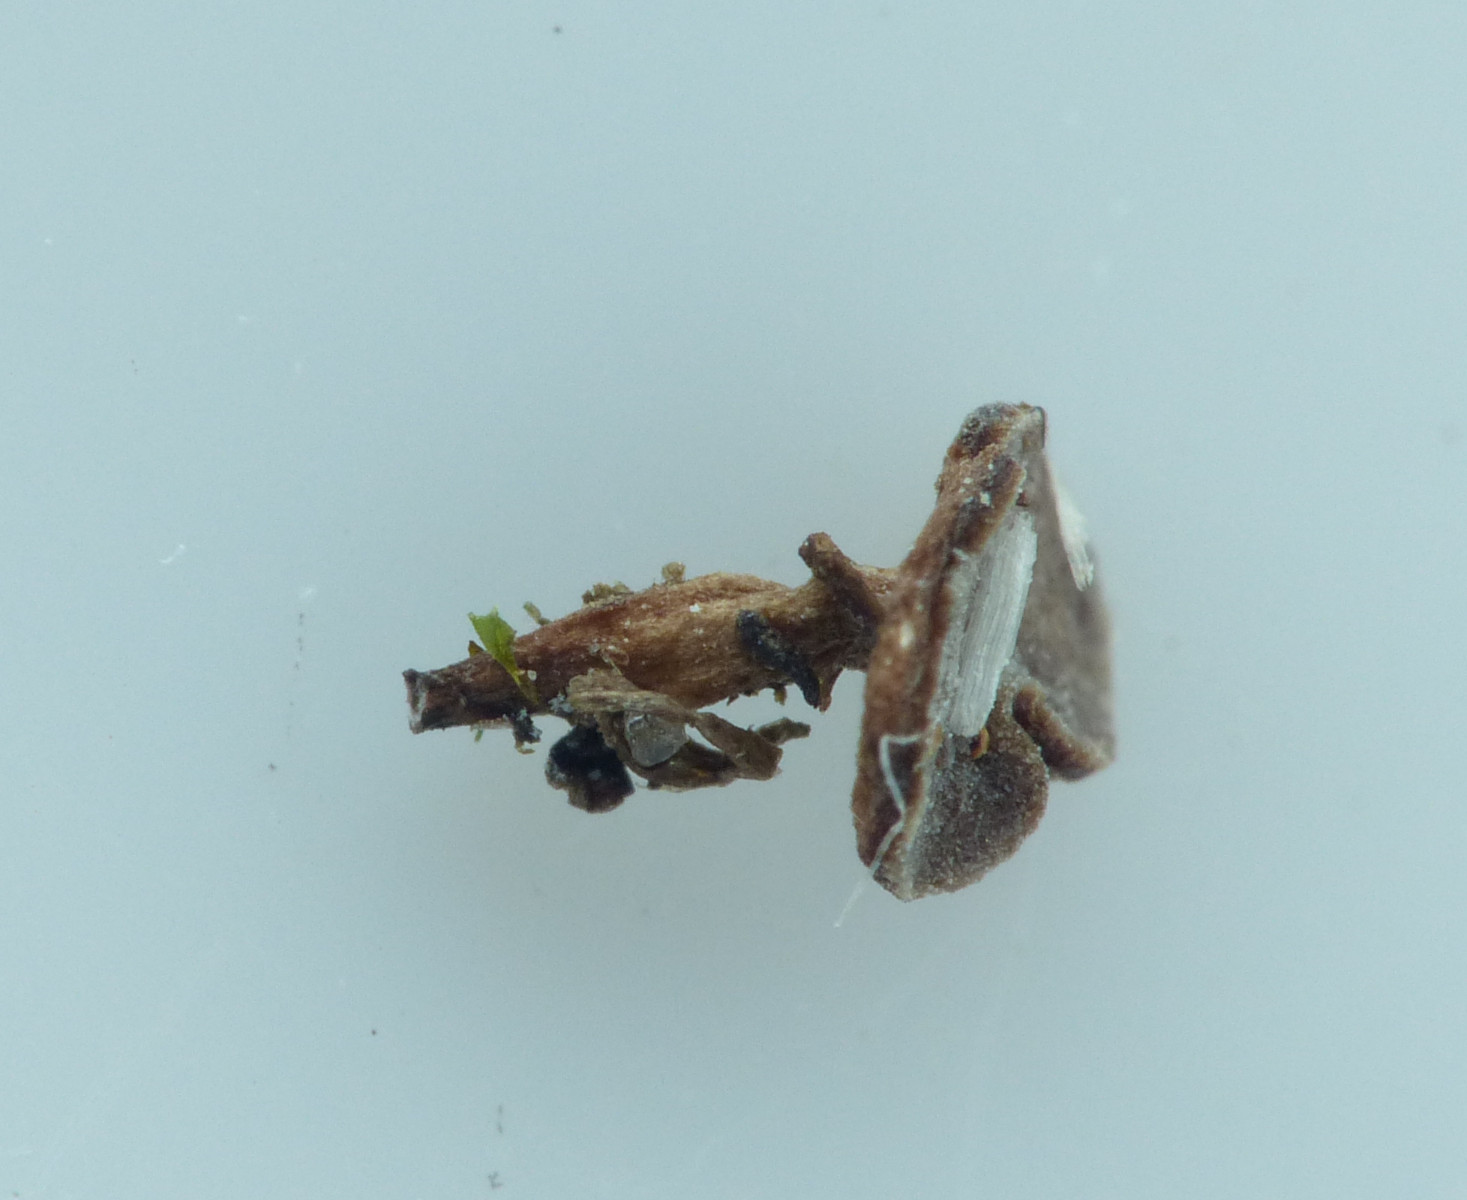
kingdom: Fungi
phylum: Ascomycota
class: Leotiomycetes
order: Helotiales
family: Sclerotiniaceae
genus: Sclerotinia
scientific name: Sclerotinia trifoliorum
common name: ærte-knoldskive
